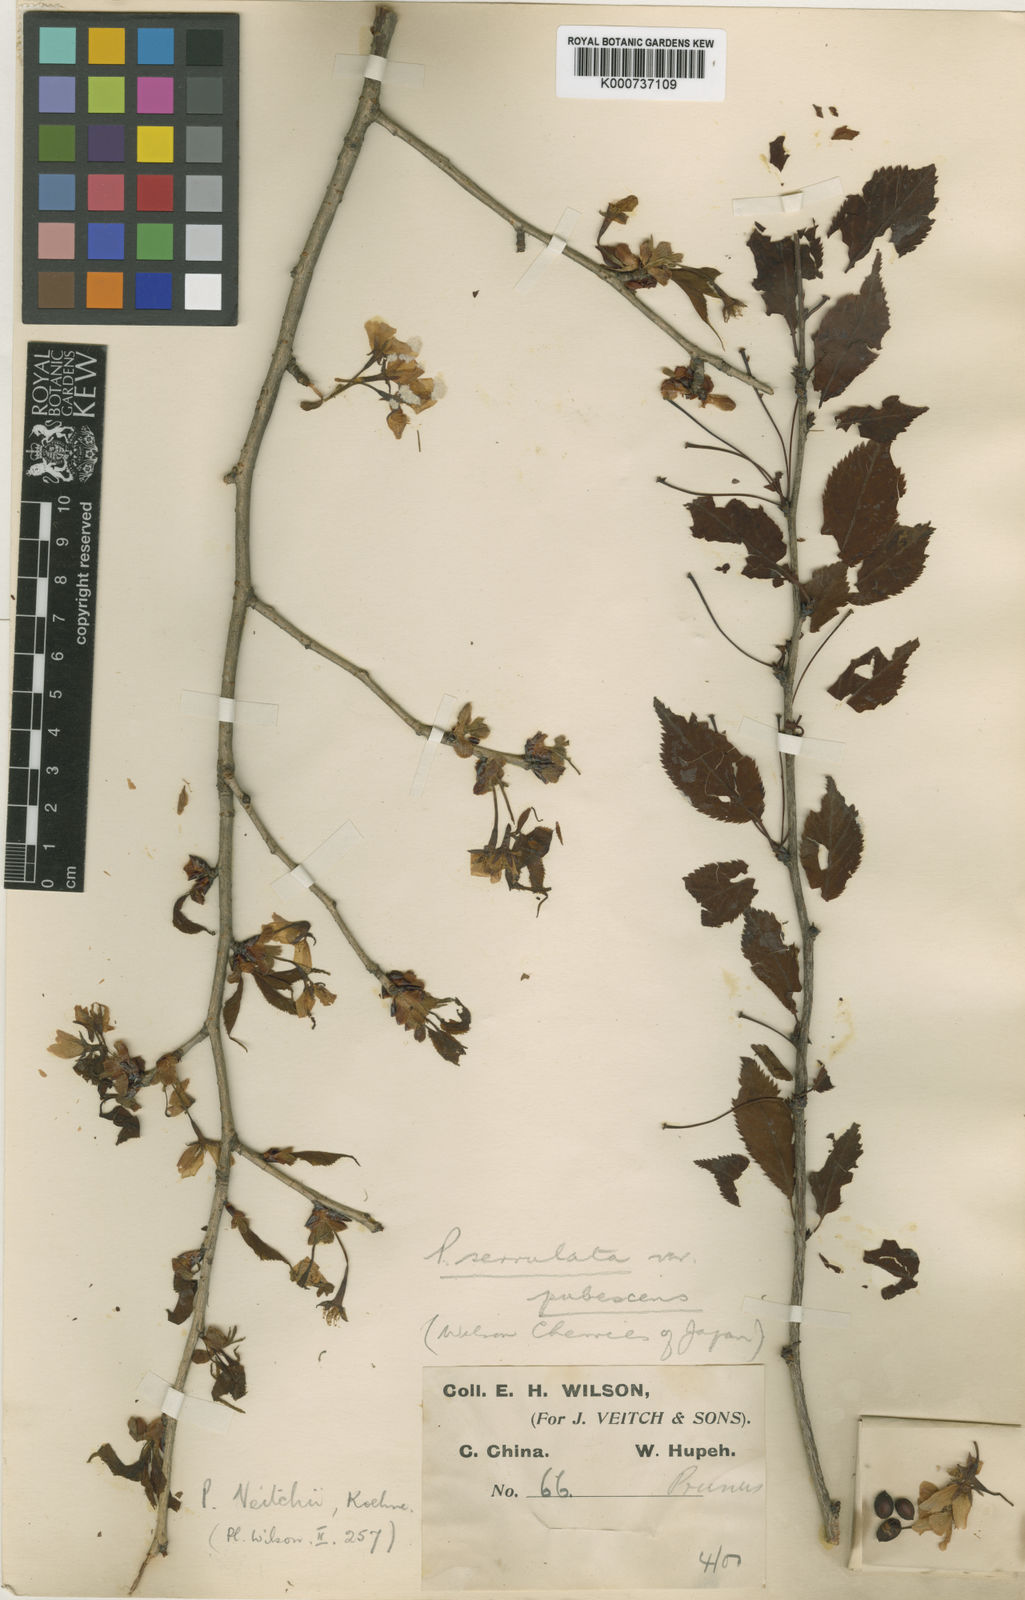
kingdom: Plantae
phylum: Tracheophyta
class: Magnoliopsida
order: Rosales
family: Rosaceae
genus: Prunus
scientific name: Prunus leveilleana
